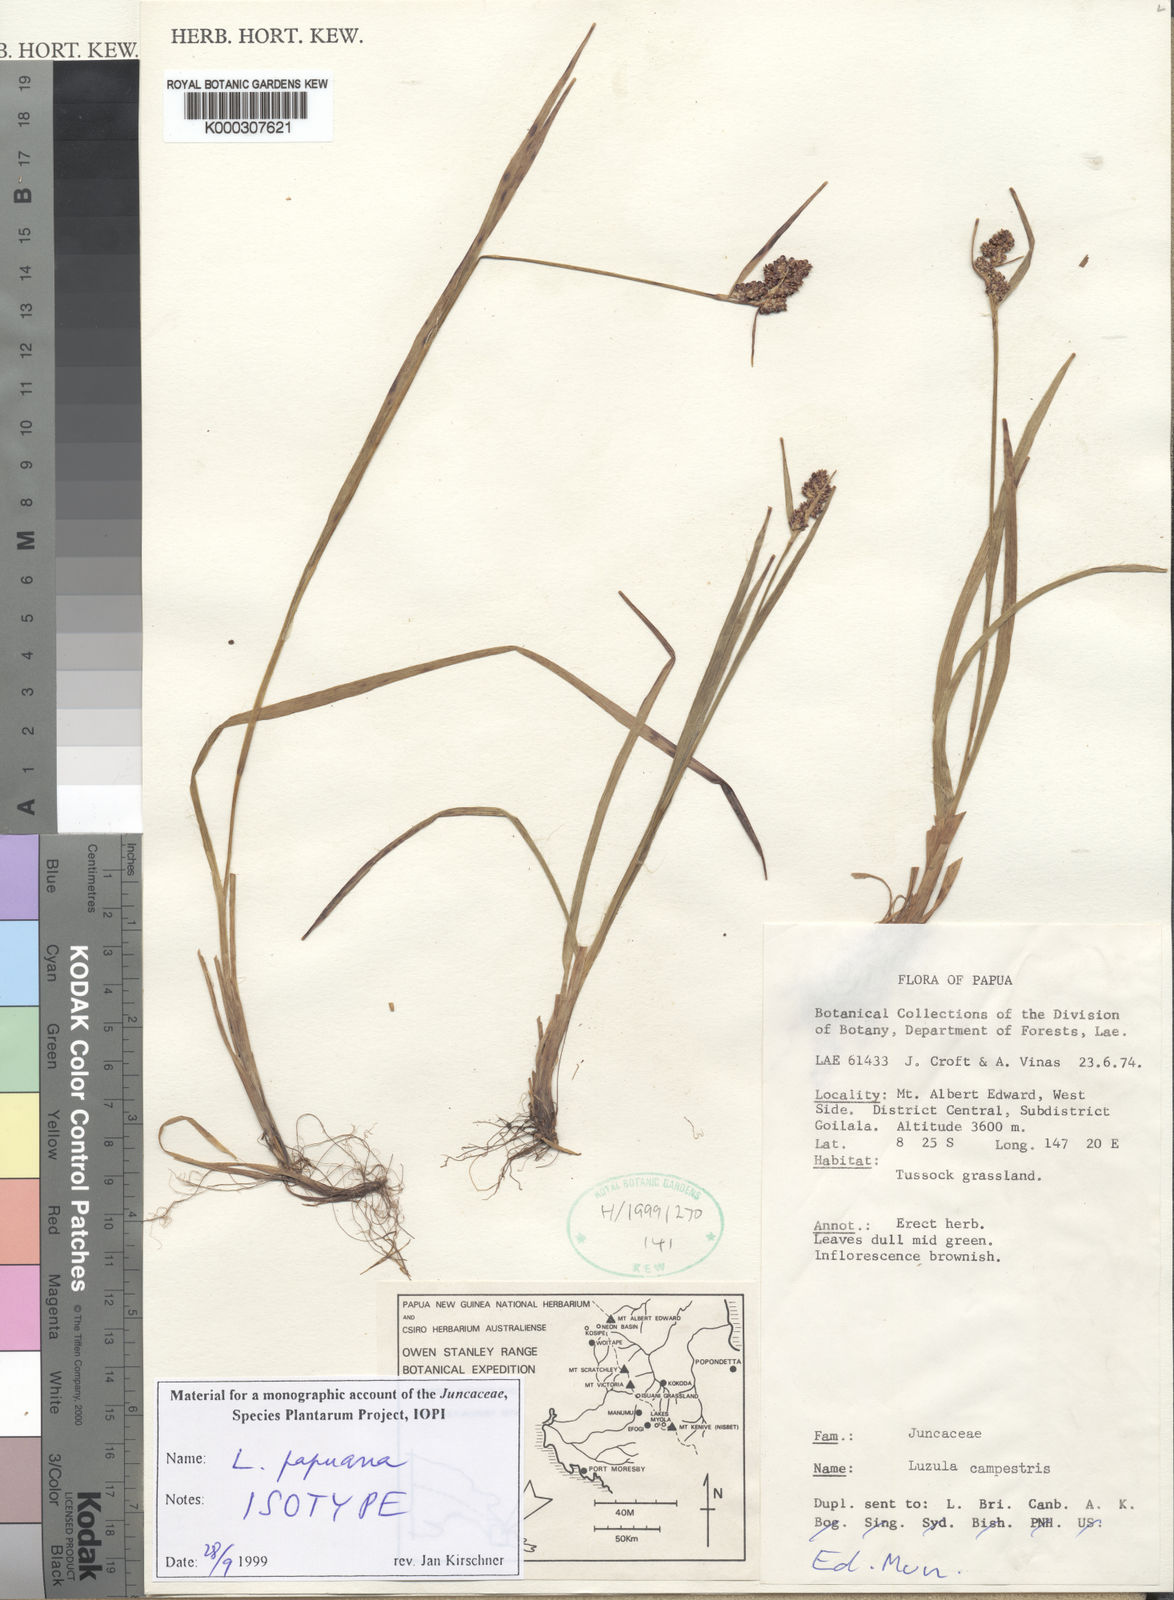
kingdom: Plantae
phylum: Tracheophyta
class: Liliopsida
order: Poales
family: Juncaceae
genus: Luzula
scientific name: Luzula papuana
